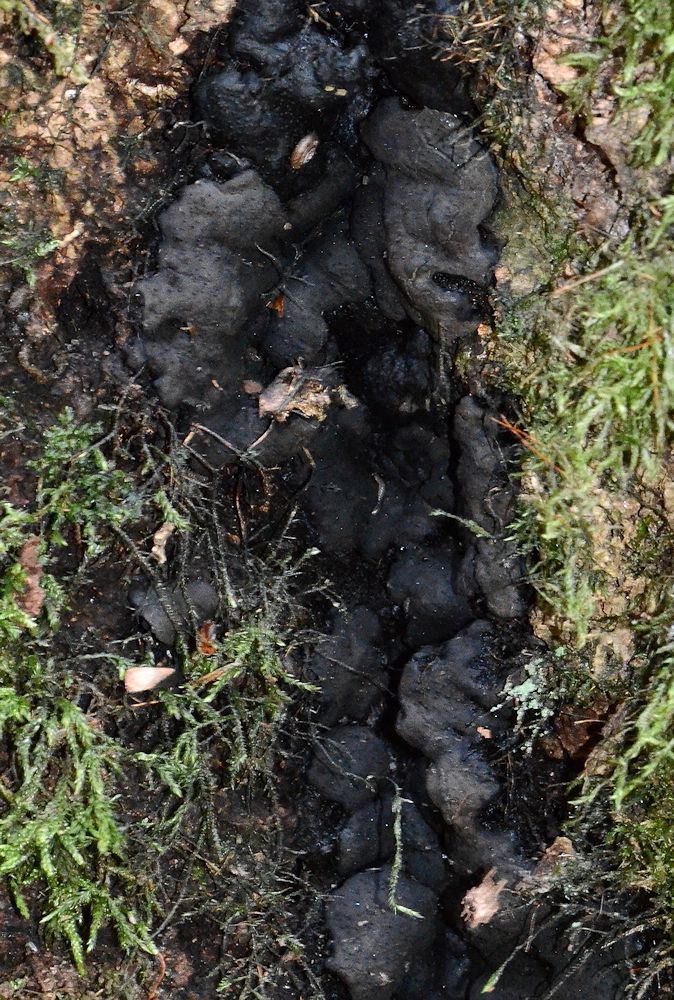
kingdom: Fungi
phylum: Ascomycota
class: Sordariomycetes
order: Xylariales
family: Xylariaceae
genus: Kretzschmaria
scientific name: Kretzschmaria deusta
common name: stor kulsvamp
